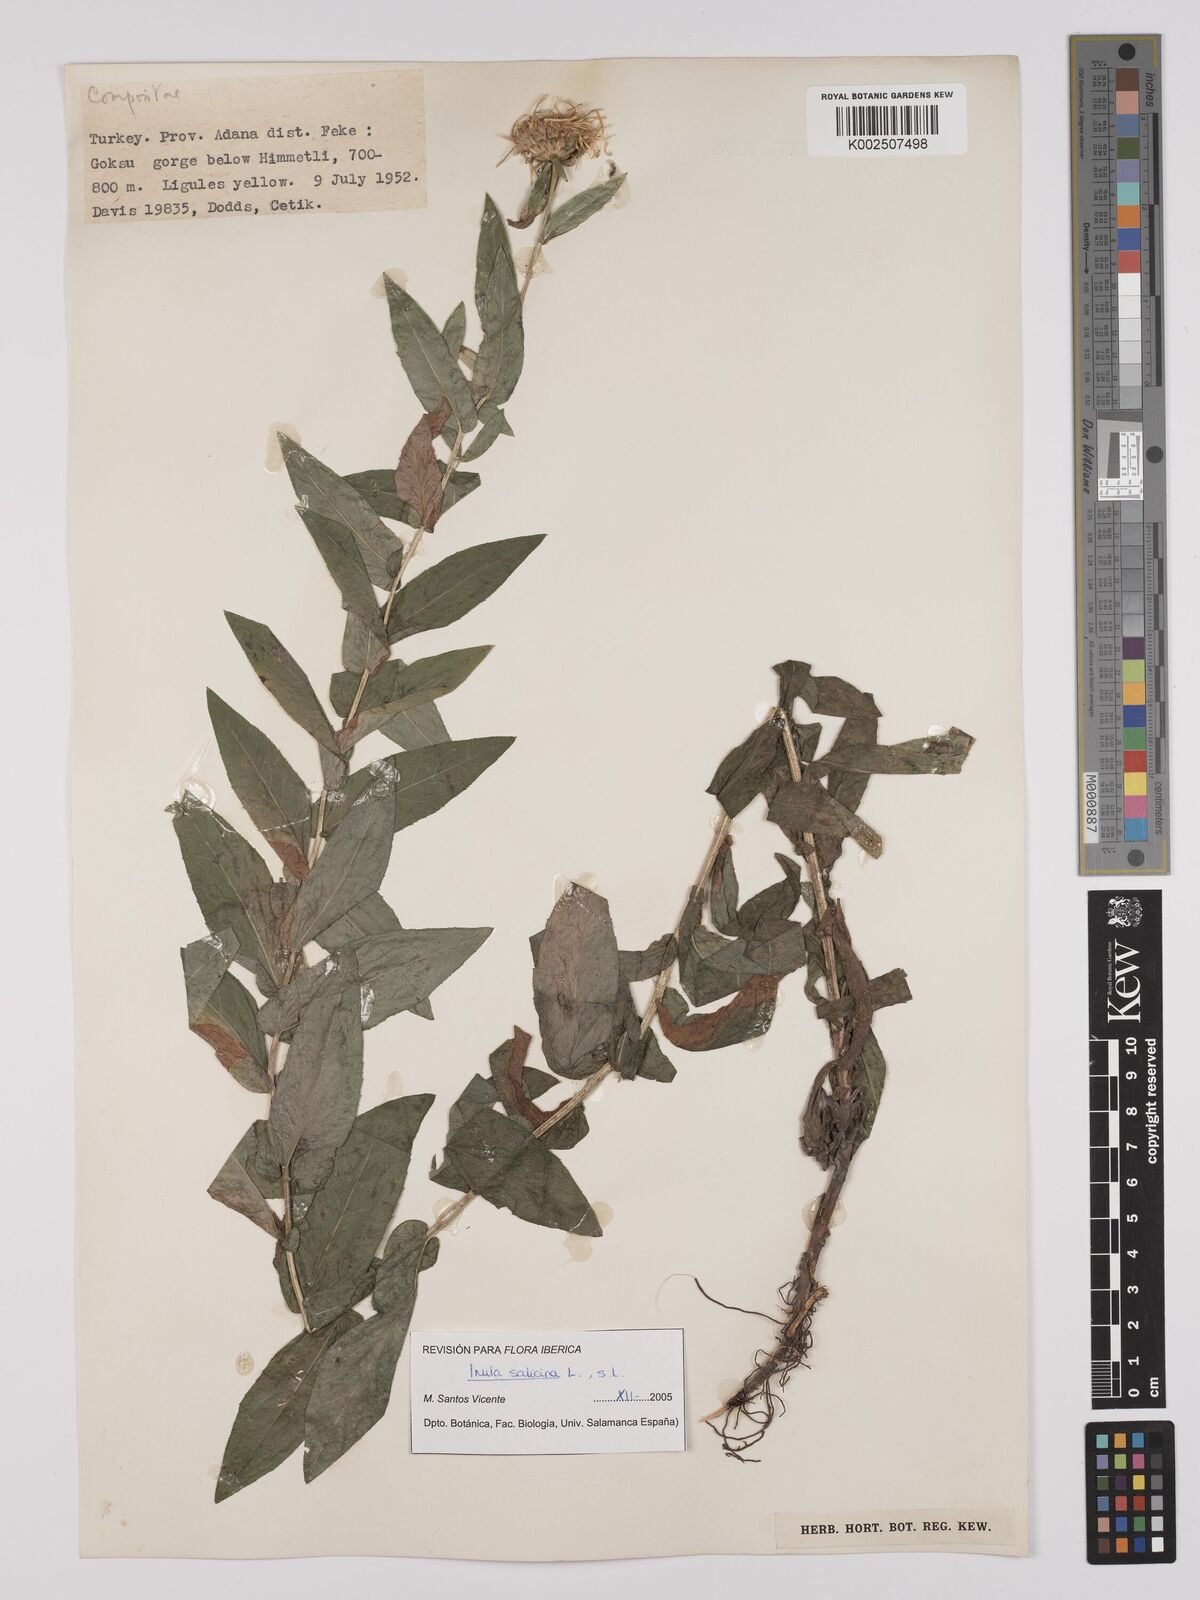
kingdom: Plantae
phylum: Tracheophyta
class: Magnoliopsida
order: Asterales
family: Asteraceae
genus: Pentanema
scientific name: Pentanema salicinum
